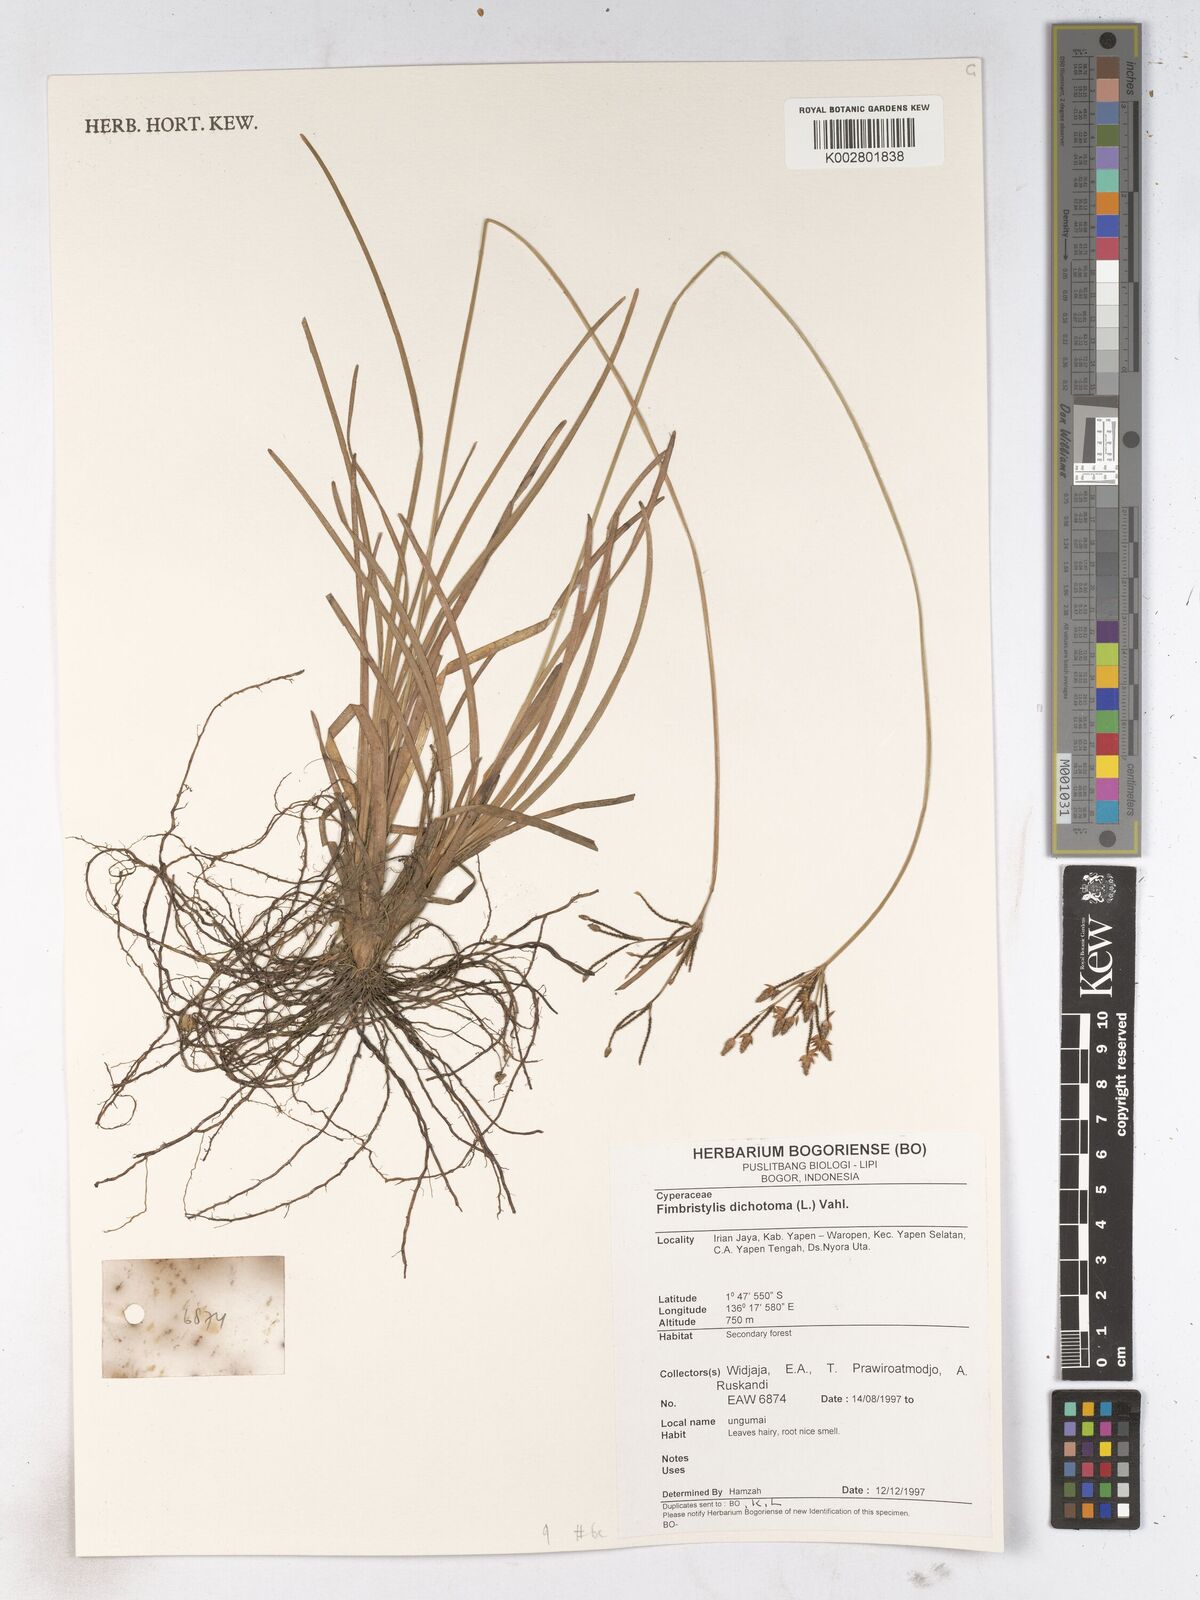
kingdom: Plantae
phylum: Tracheophyta
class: Liliopsida
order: Poales
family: Cyperaceae
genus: Fimbristylis
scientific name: Fimbristylis dichotoma
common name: Forked fimbry
